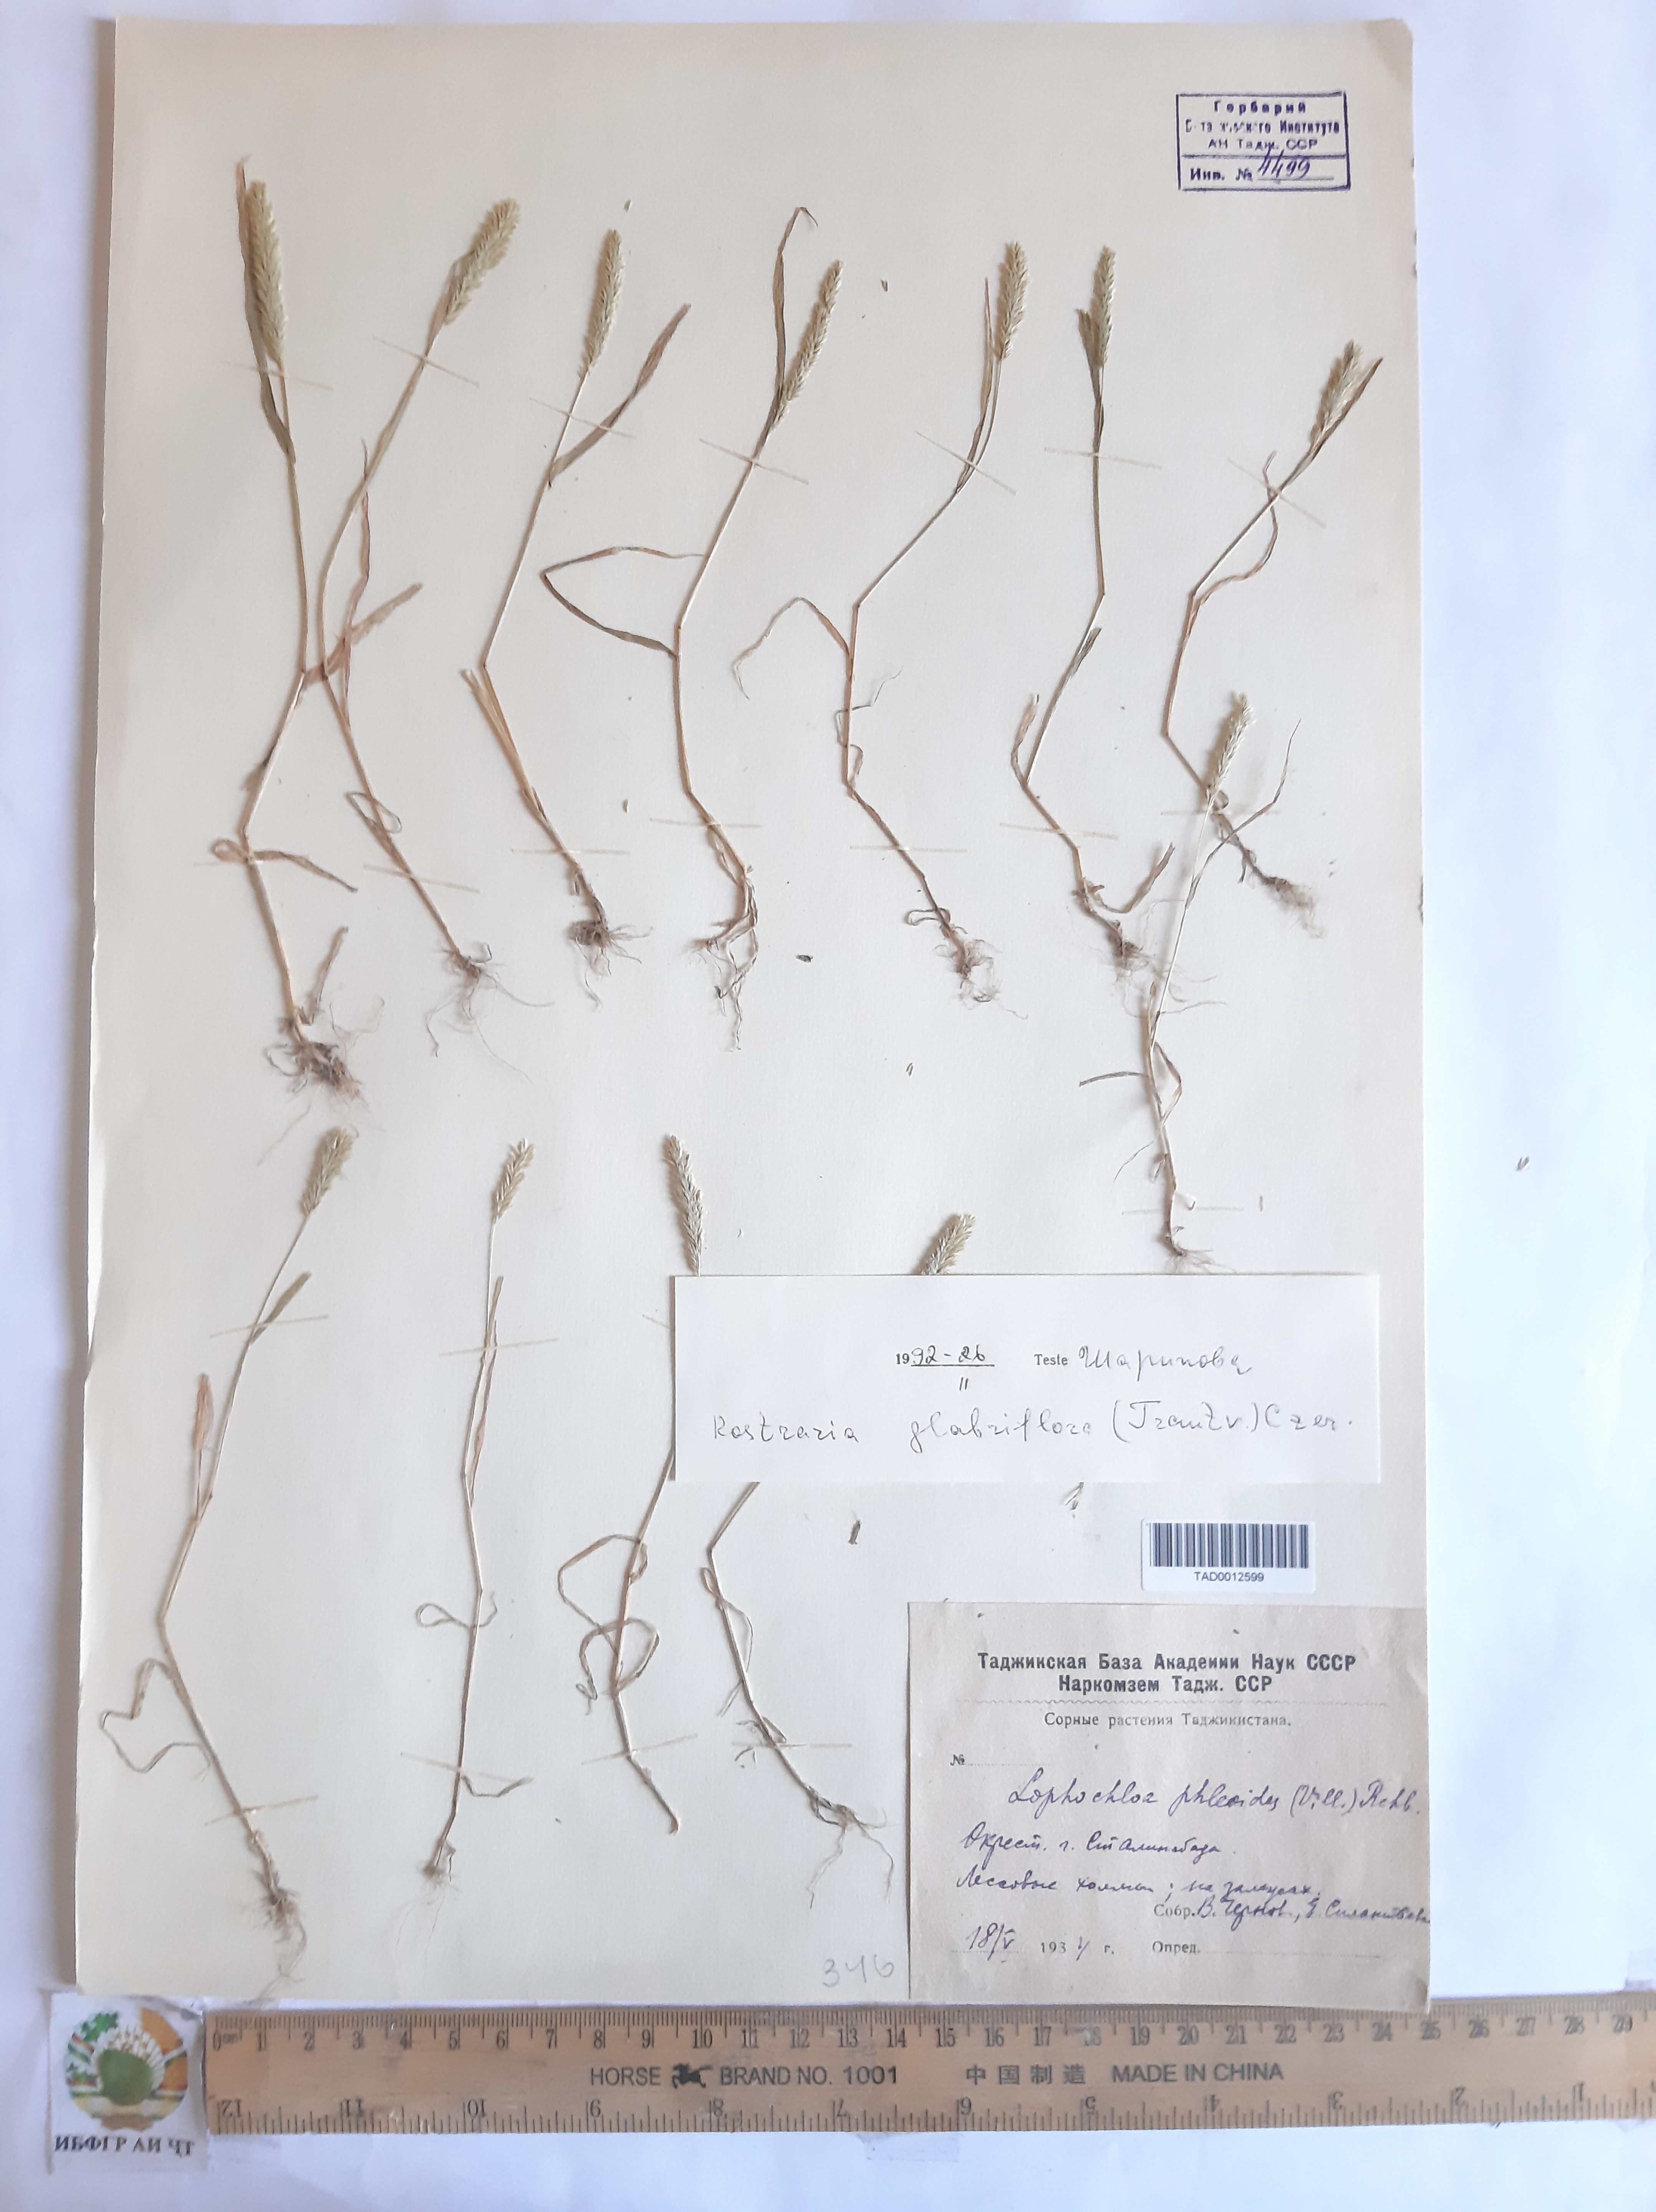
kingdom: Plantae
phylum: Tracheophyta
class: Liliopsida
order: Poales
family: Poaceae
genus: Rostraria
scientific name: Rostraria cristata
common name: Mediterranean hair-grass
